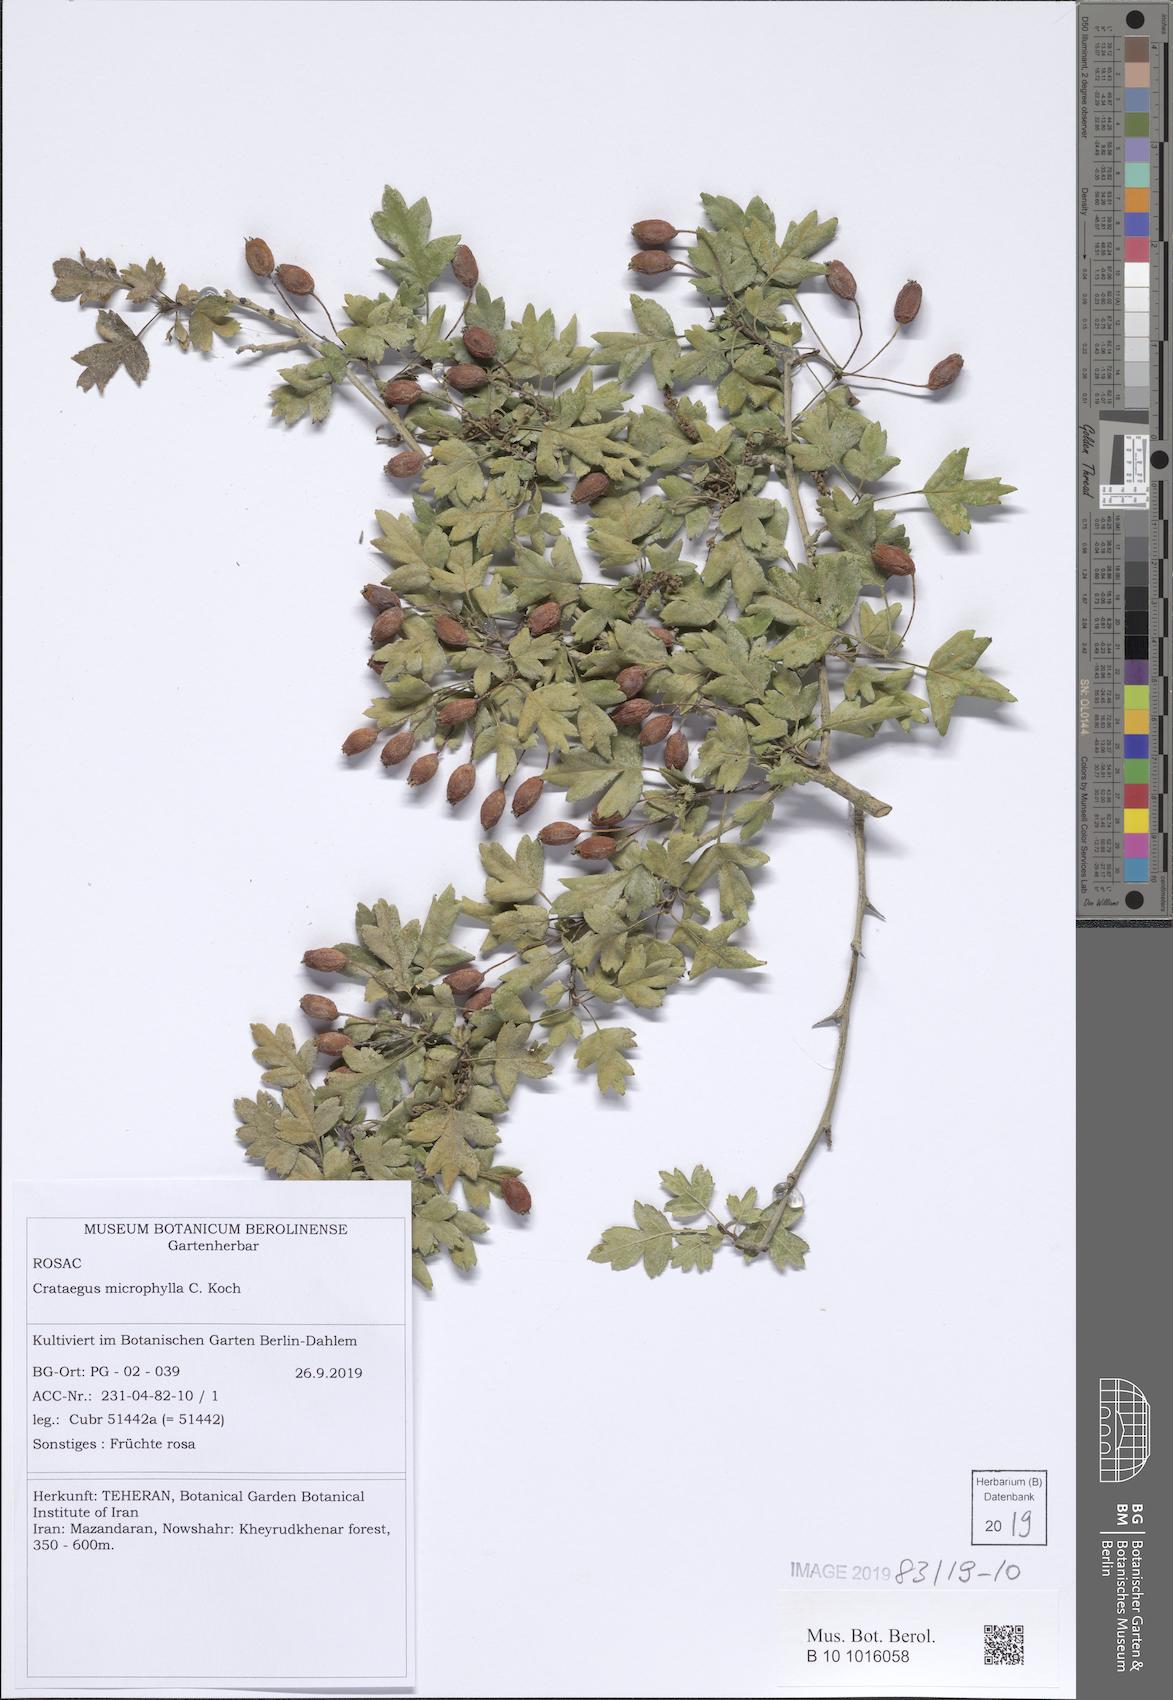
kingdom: Plantae
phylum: Tracheophyta
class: Magnoliopsida
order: Rosales
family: Rosaceae
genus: Crataegus
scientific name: Crataegus microphylla
